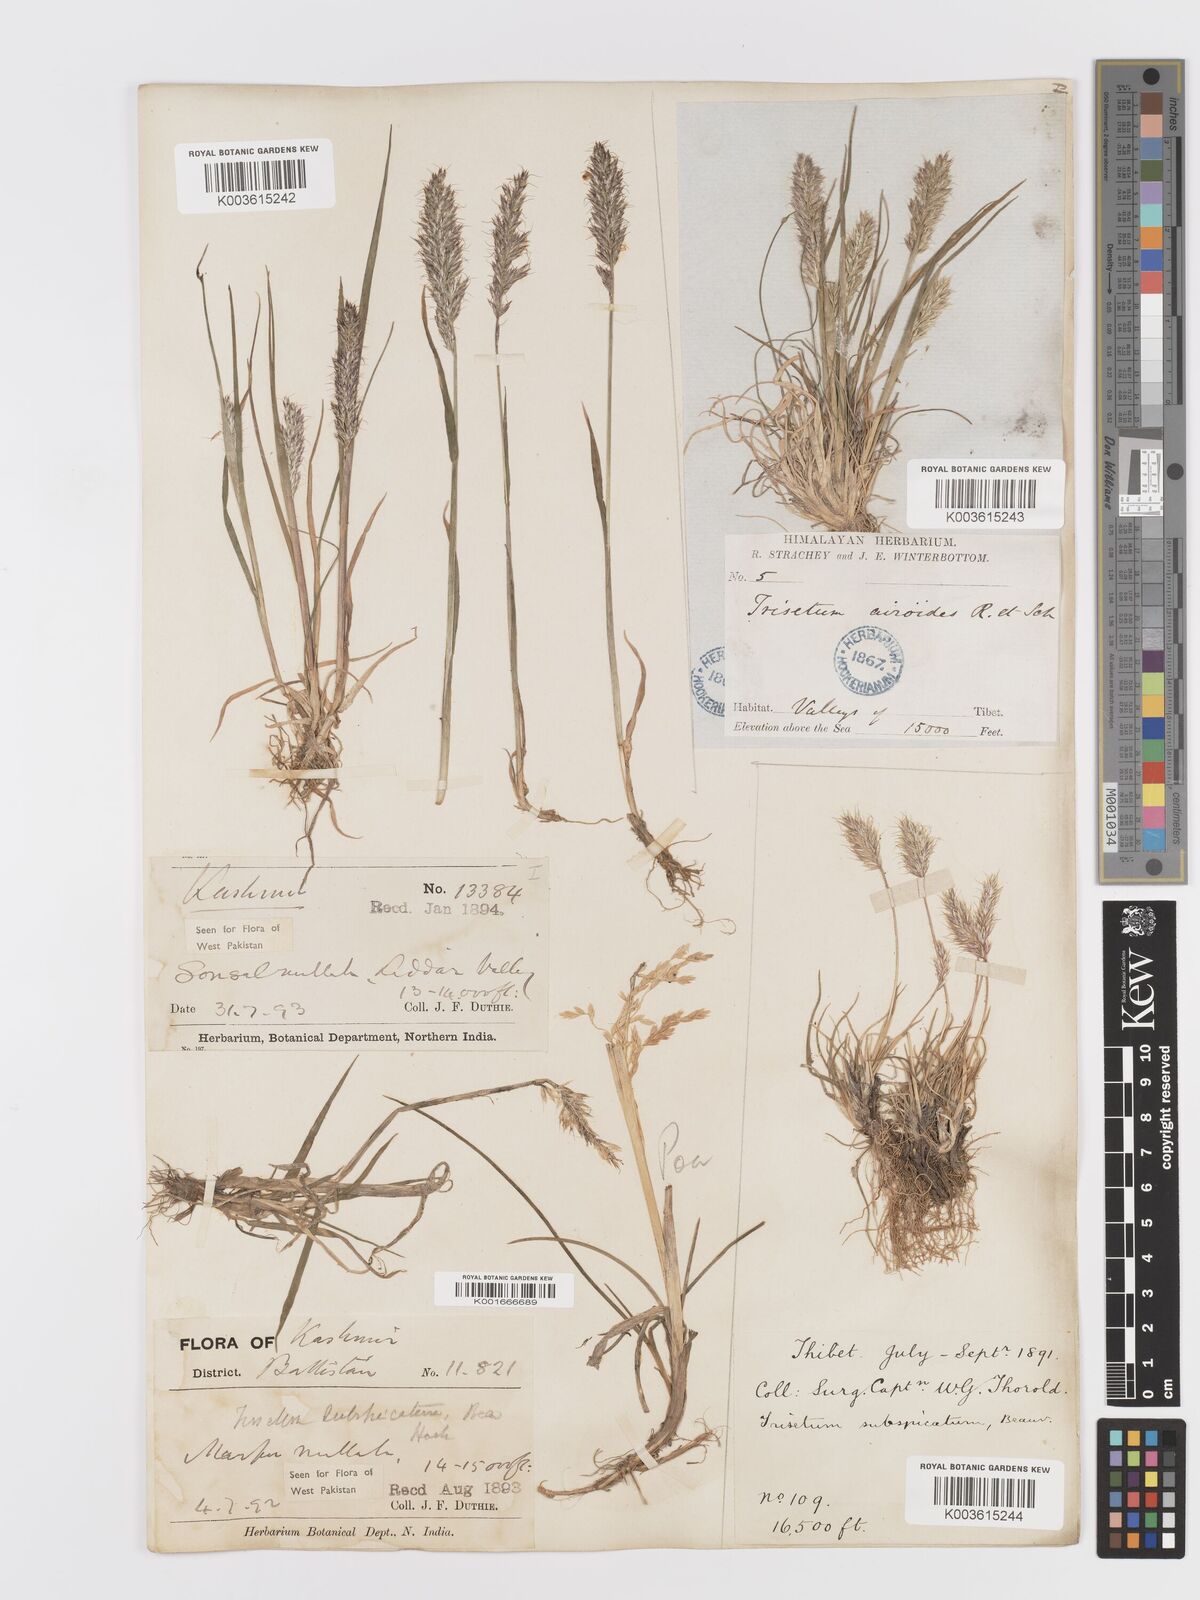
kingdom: Plantae
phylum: Tracheophyta
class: Liliopsida
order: Poales
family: Poaceae
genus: Koeleria
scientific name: Koeleria spicata
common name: Mountain trisetum
